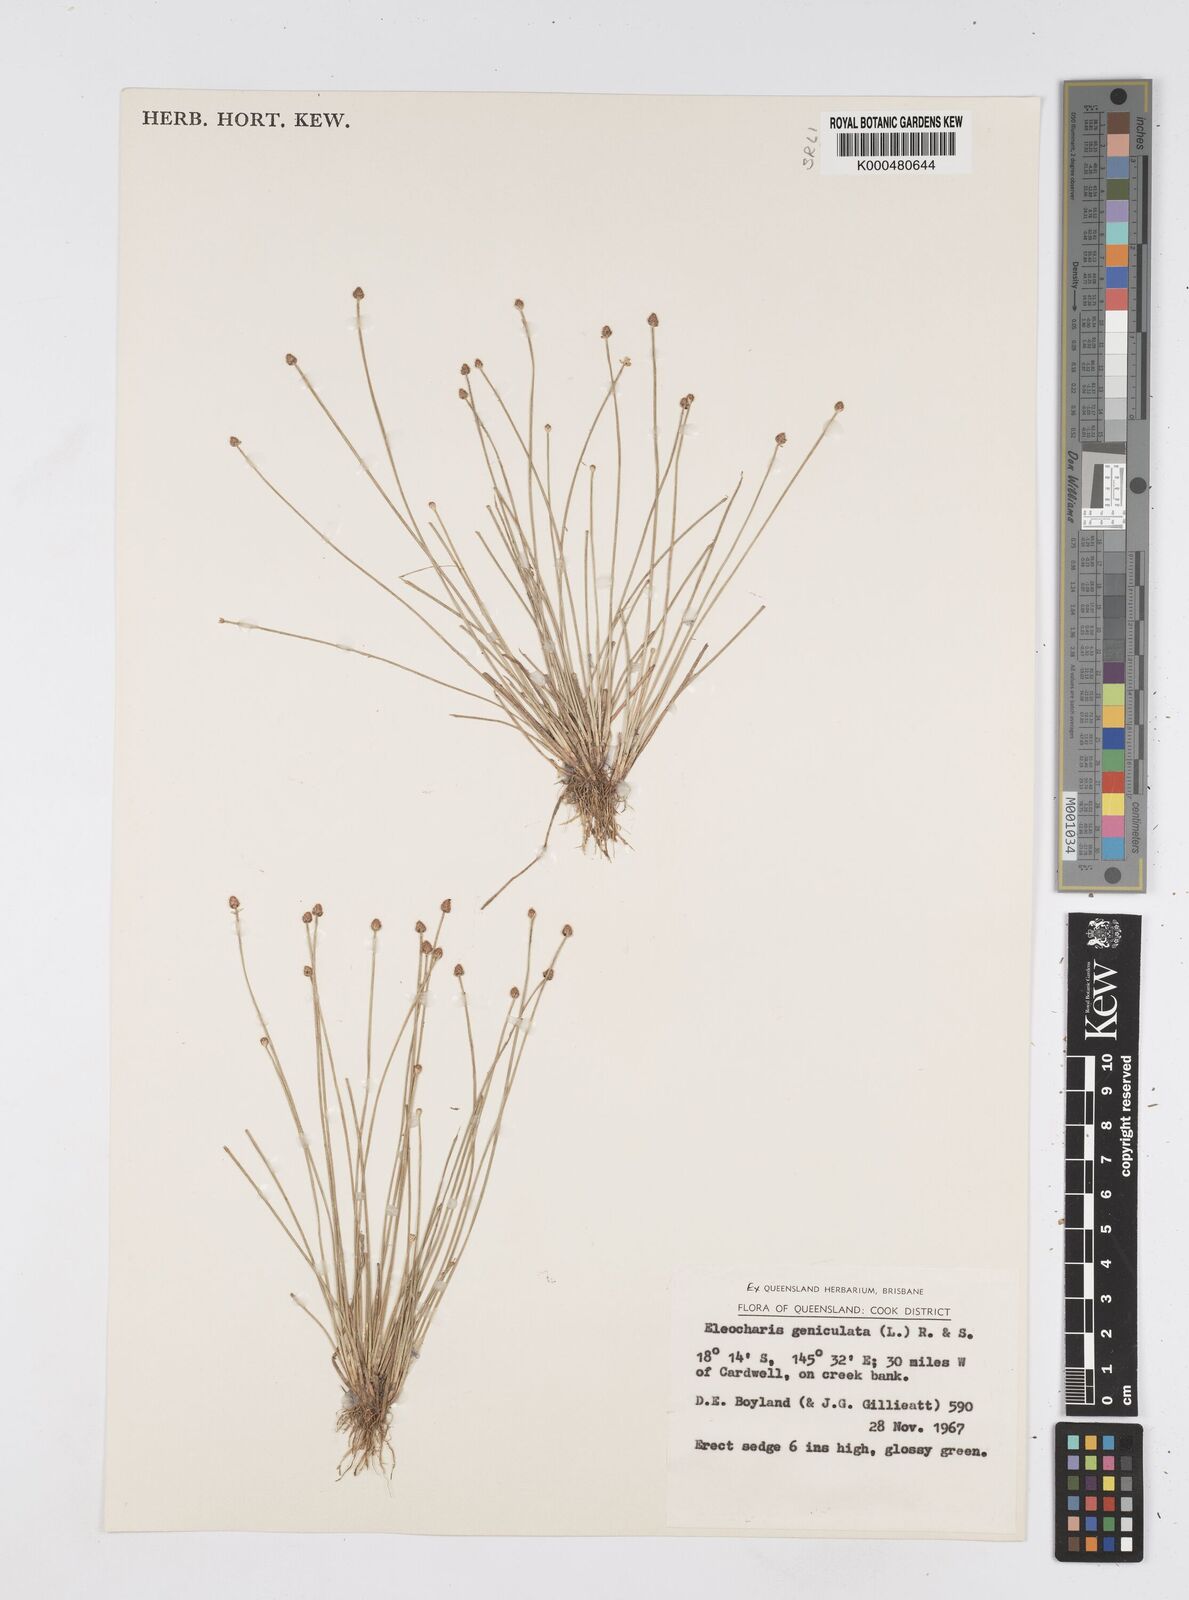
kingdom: Plantae
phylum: Tracheophyta
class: Liliopsida
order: Poales
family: Cyperaceae
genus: Eleocharis
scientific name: Eleocharis geniculata
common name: Canada spikesedge
